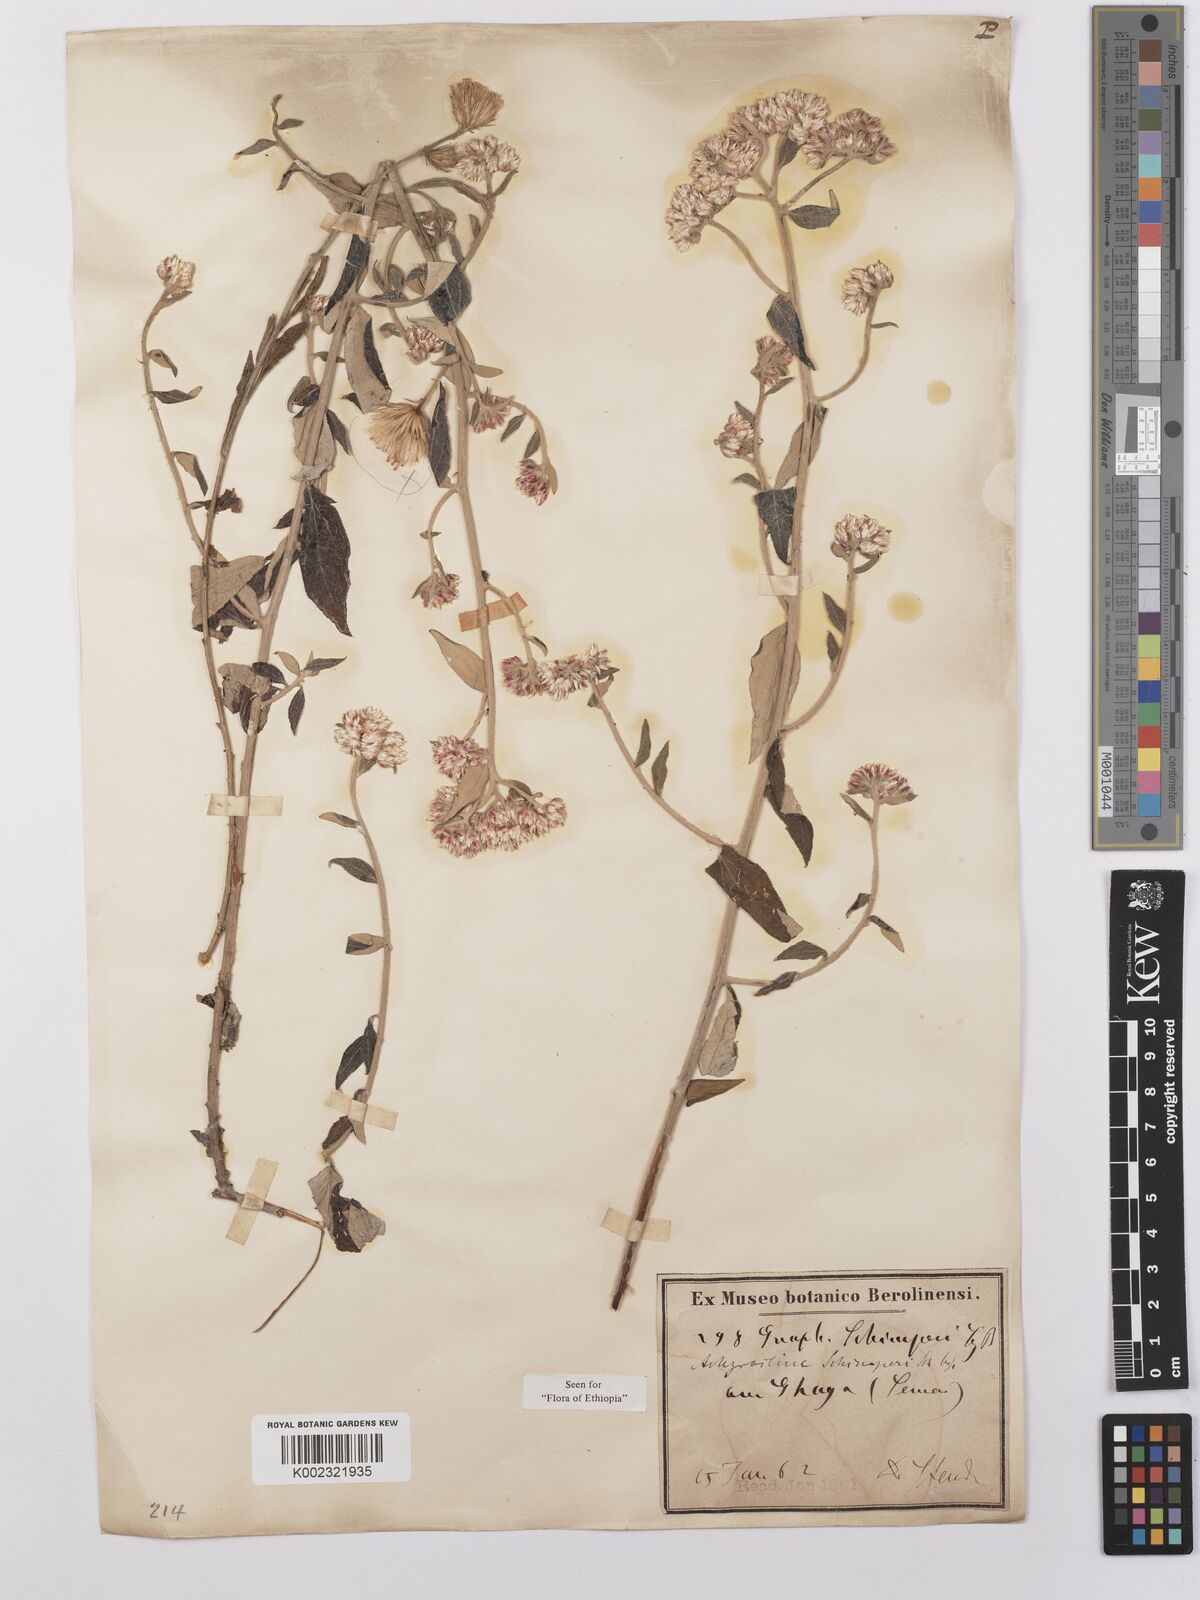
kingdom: Plantae
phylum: Tracheophyta
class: Magnoliopsida
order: Asterales
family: Asteraceae
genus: Helichrysum
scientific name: Helichrysum schimperi
